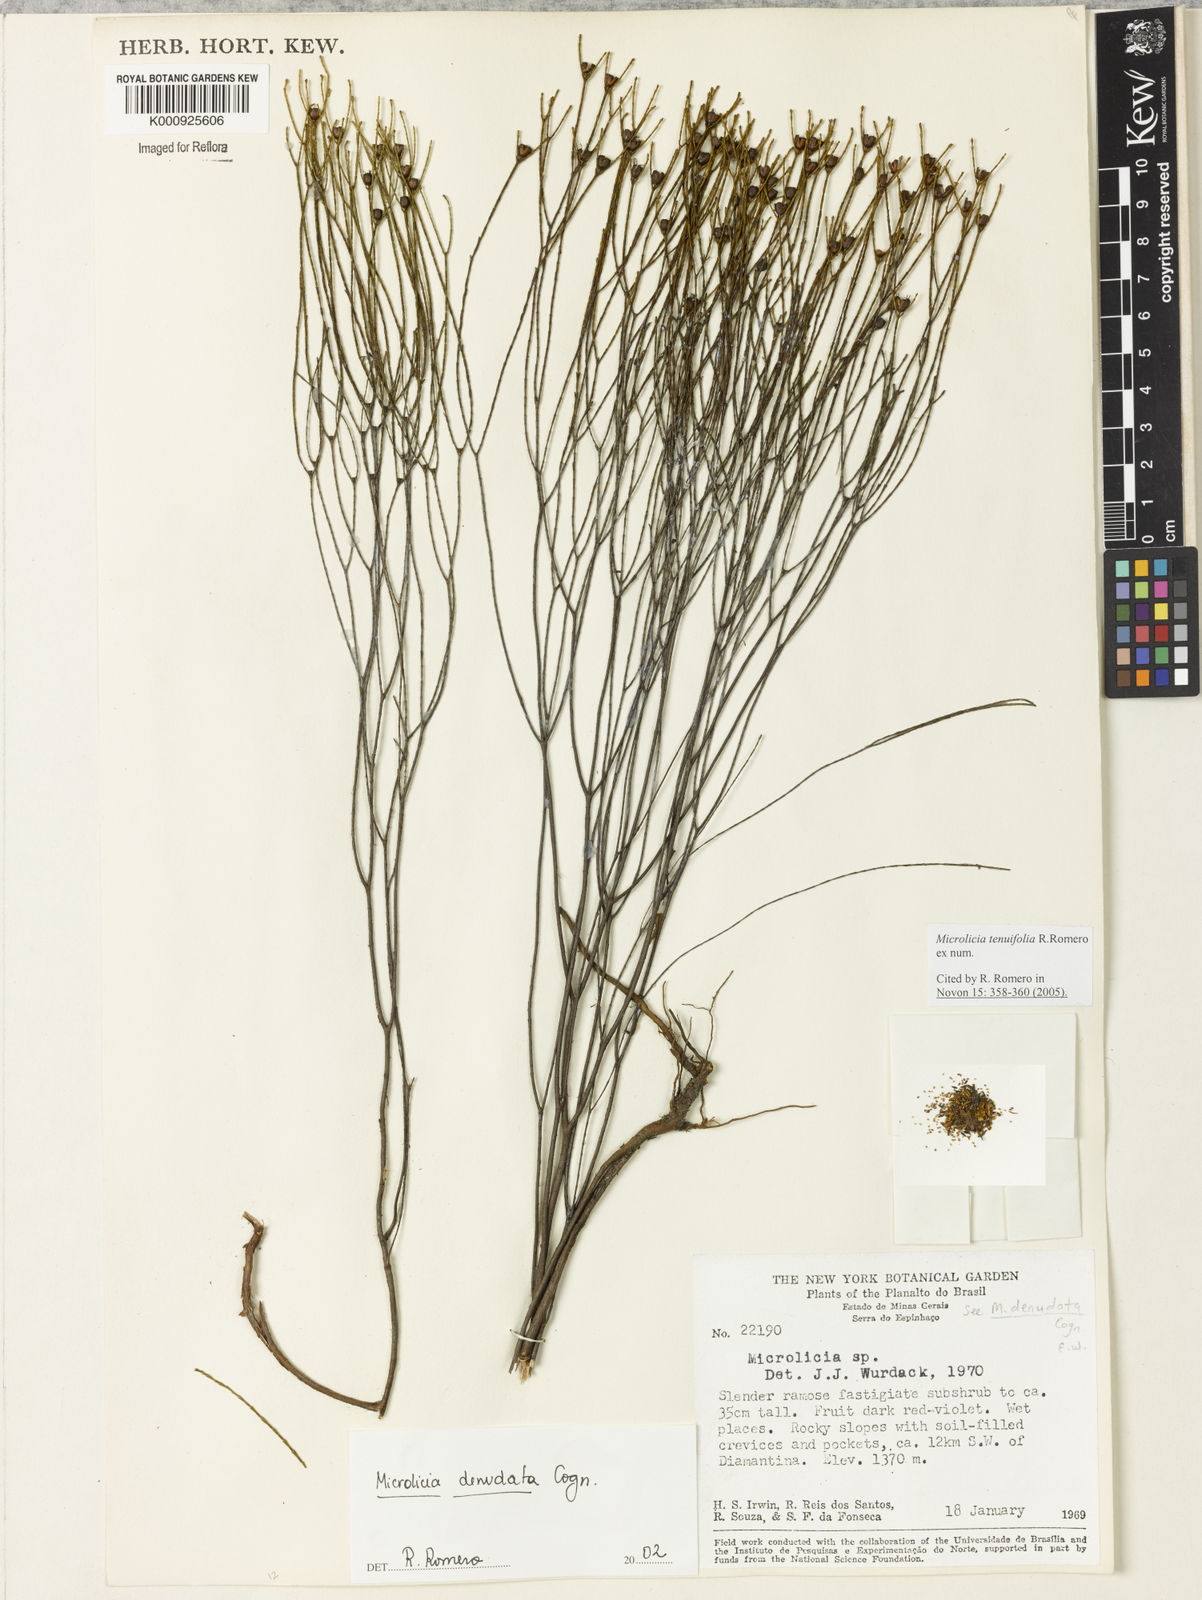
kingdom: Plantae
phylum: Tracheophyta
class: Magnoliopsida
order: Myrtales
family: Melastomataceae
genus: Microlicia
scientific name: Microlicia tenuifolia
